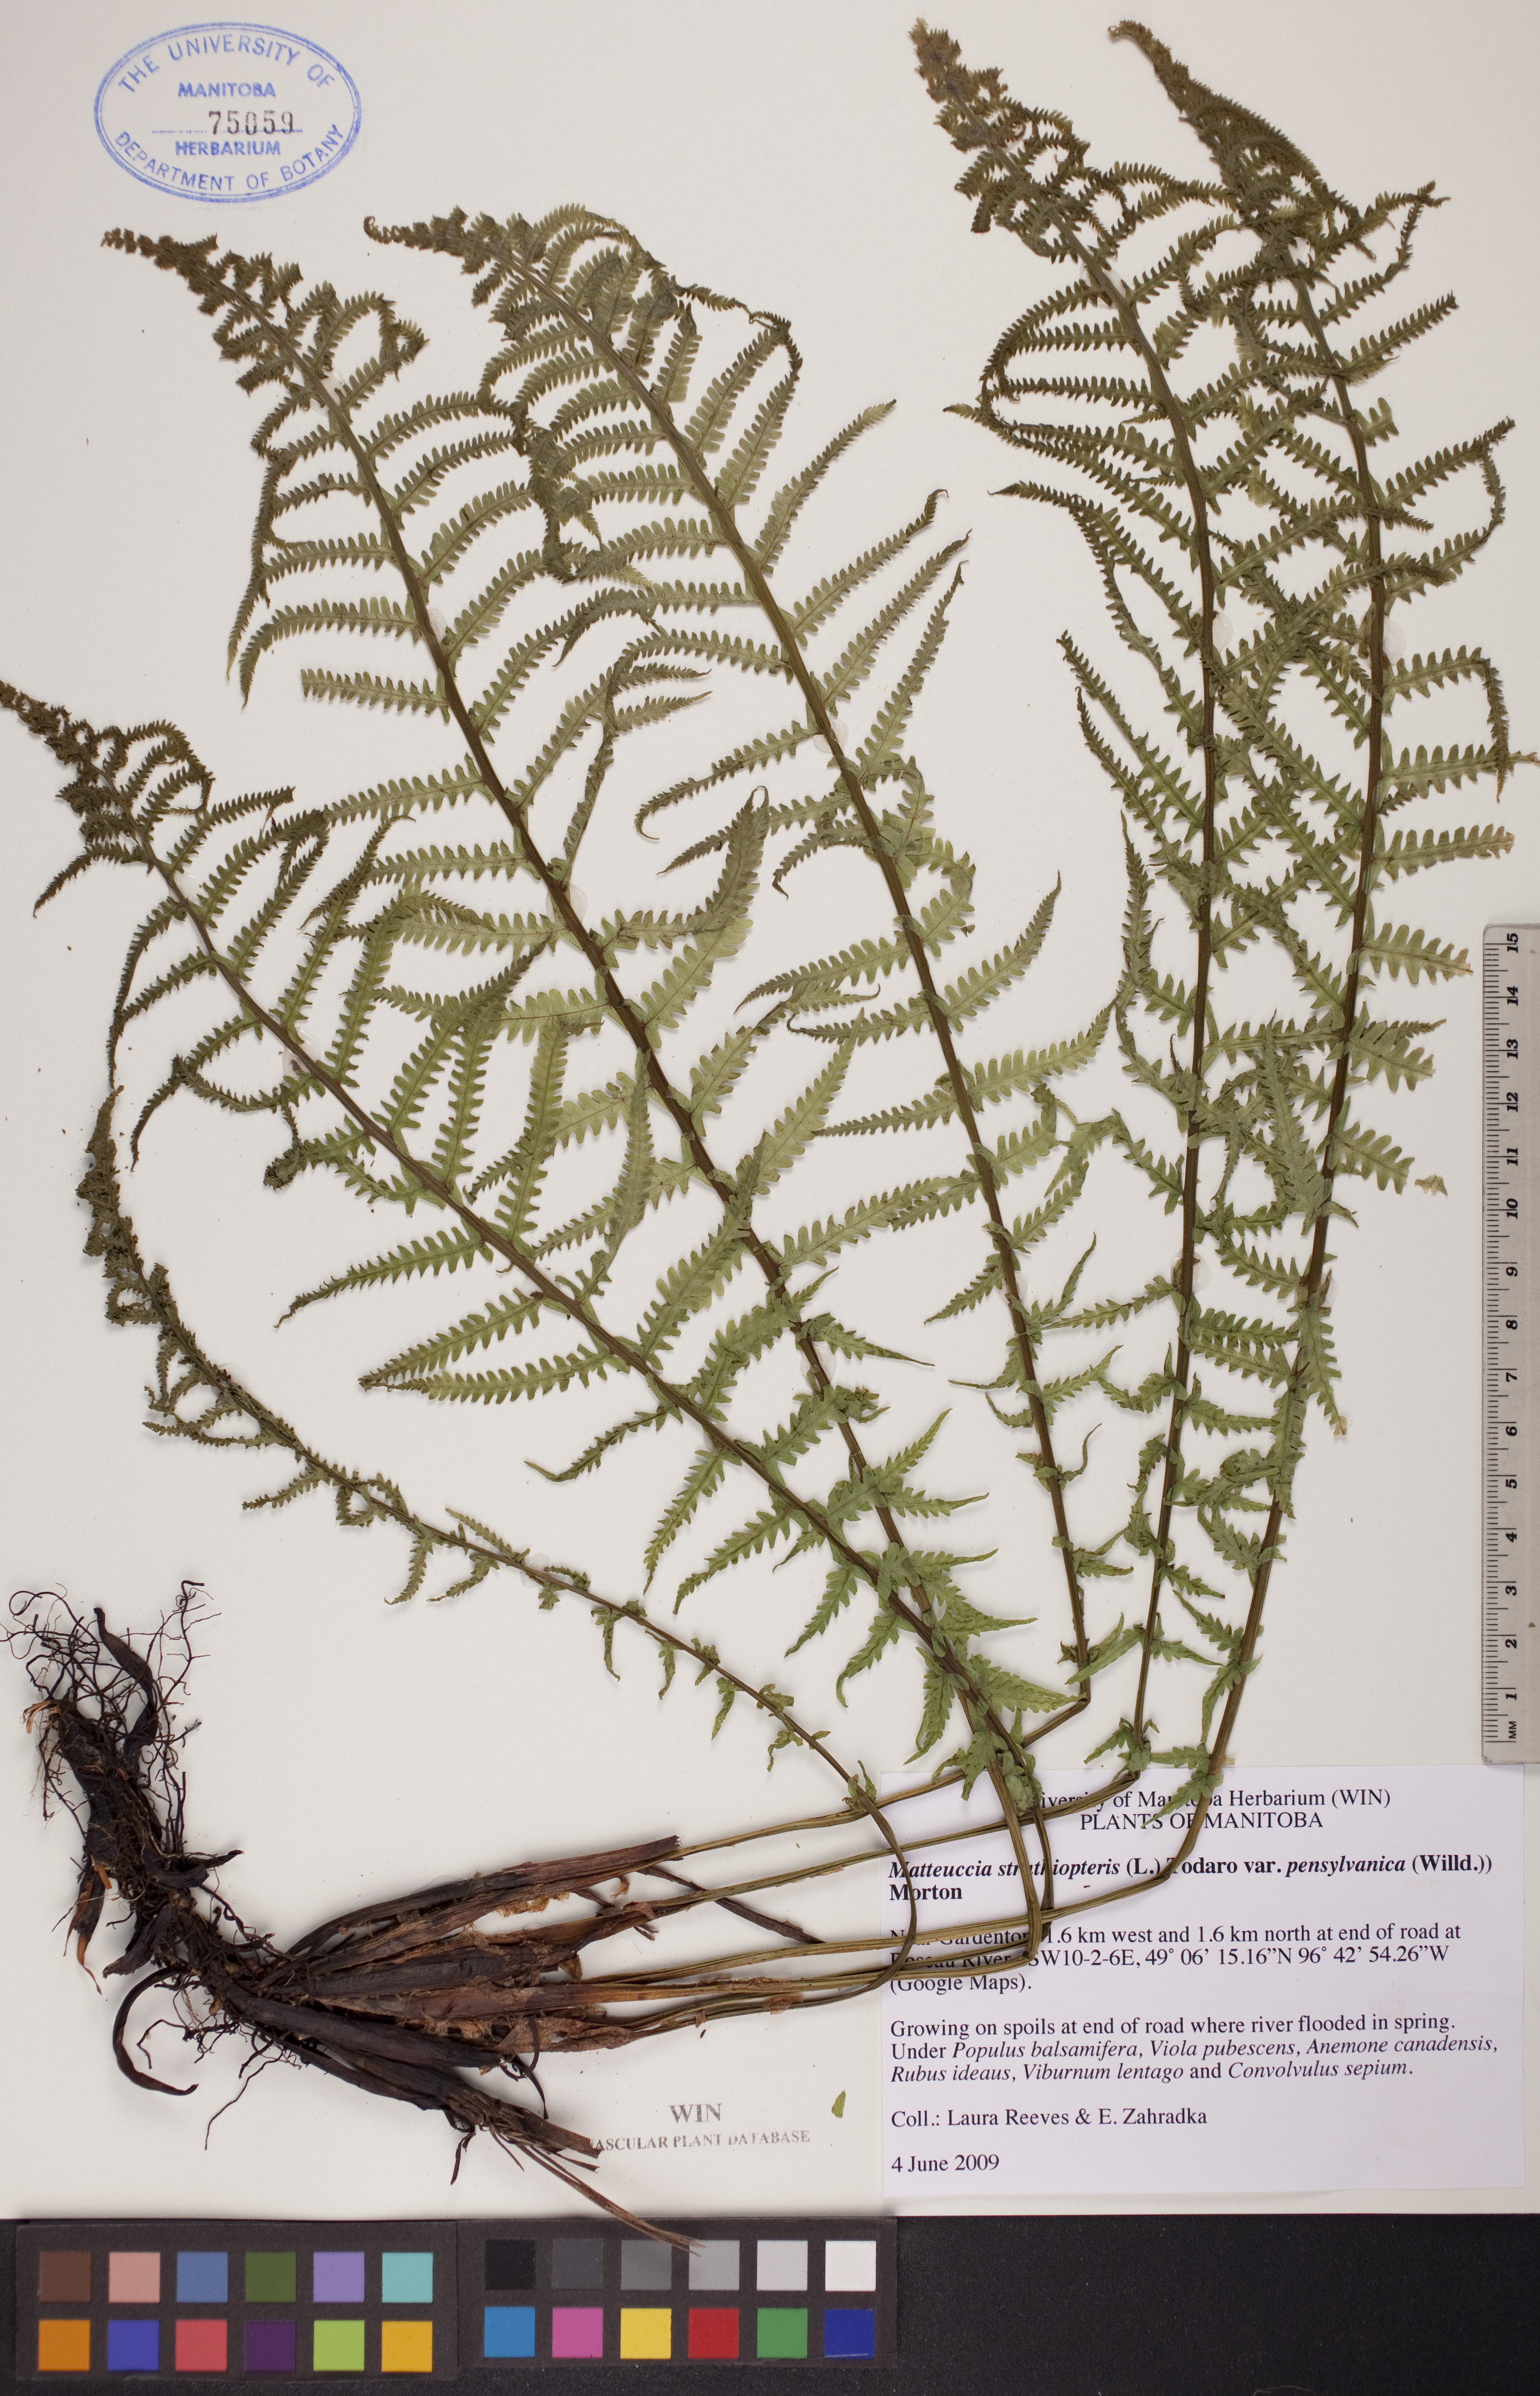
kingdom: Plantae
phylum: Tracheophyta
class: Polypodiopsida
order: Polypodiales
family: Onocleaceae
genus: Matteuccia
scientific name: Matteuccia pensylvanica
